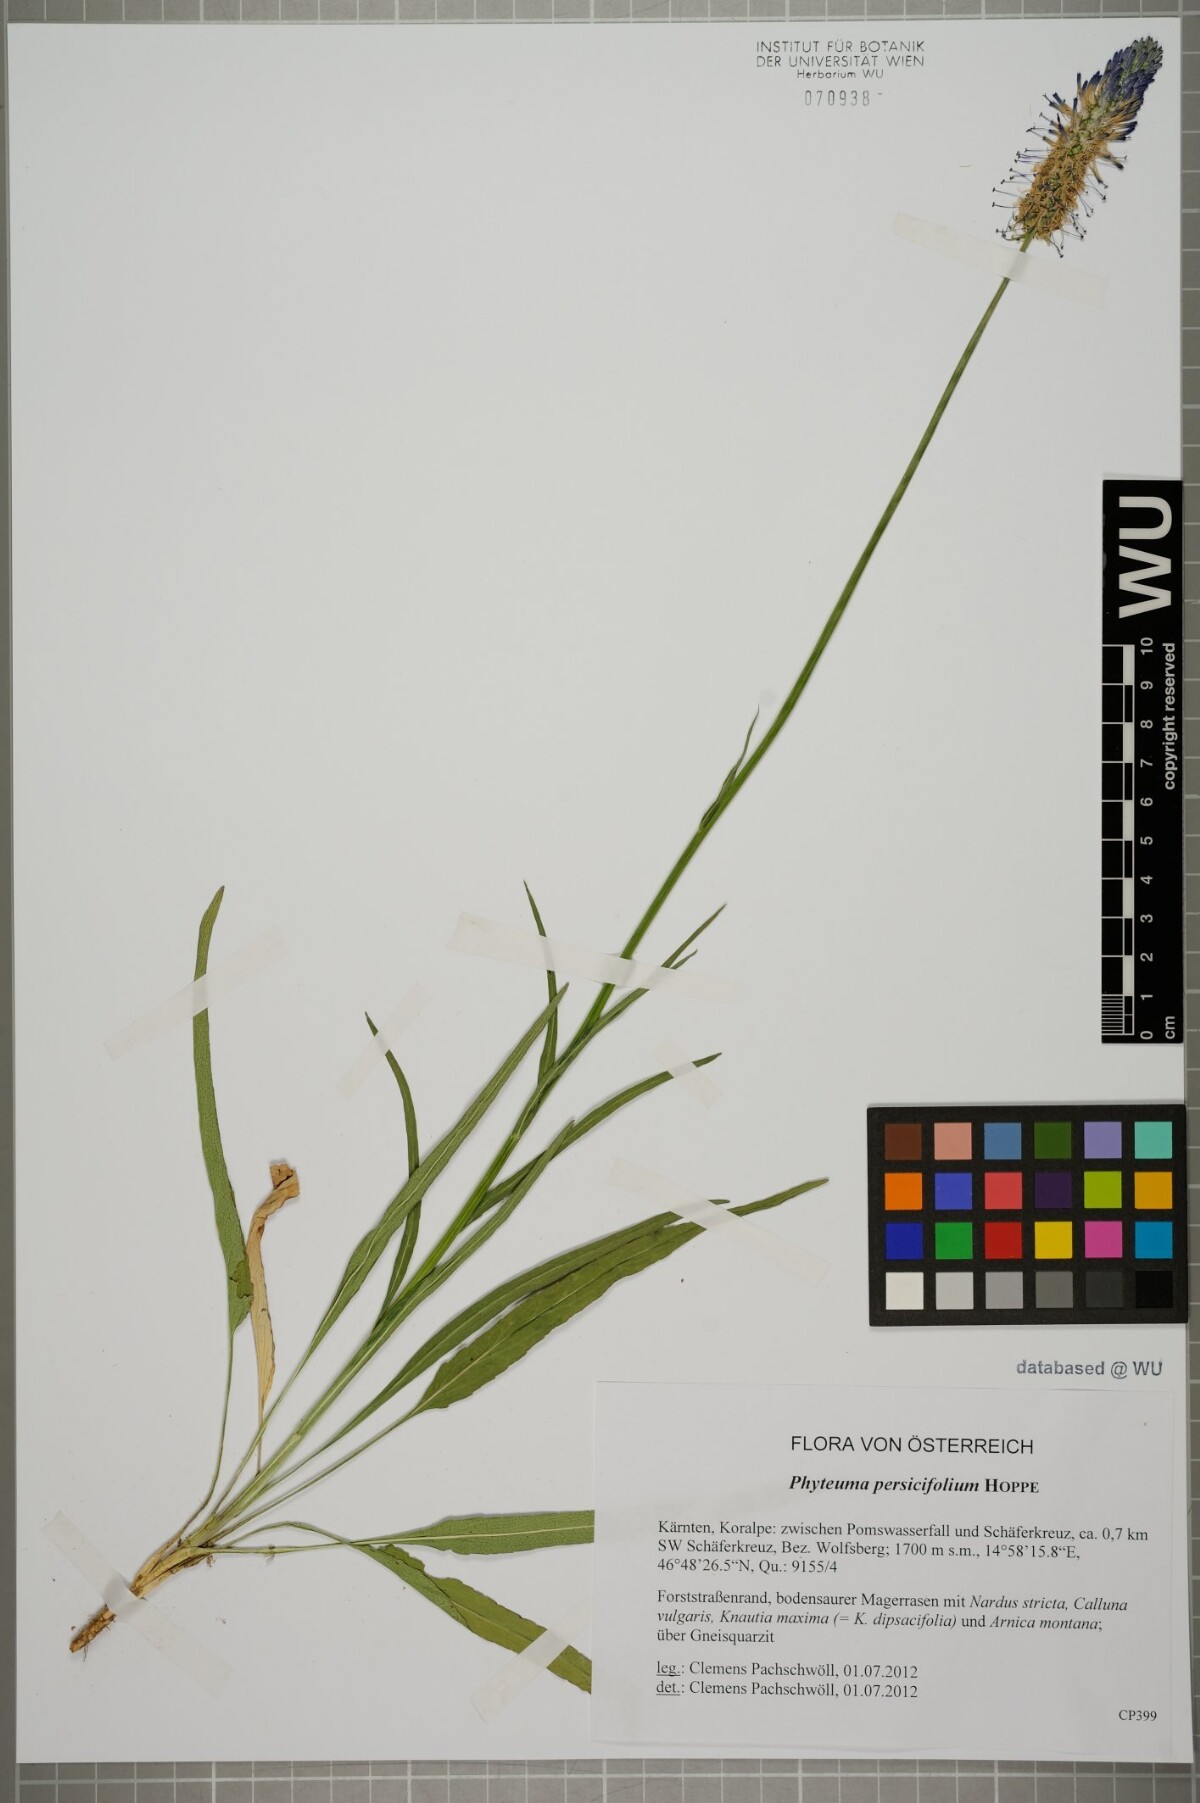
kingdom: Plantae
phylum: Tracheophyta
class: Magnoliopsida
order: Asterales
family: Campanulaceae
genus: Phyteuma
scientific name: Phyteuma persicifolium
